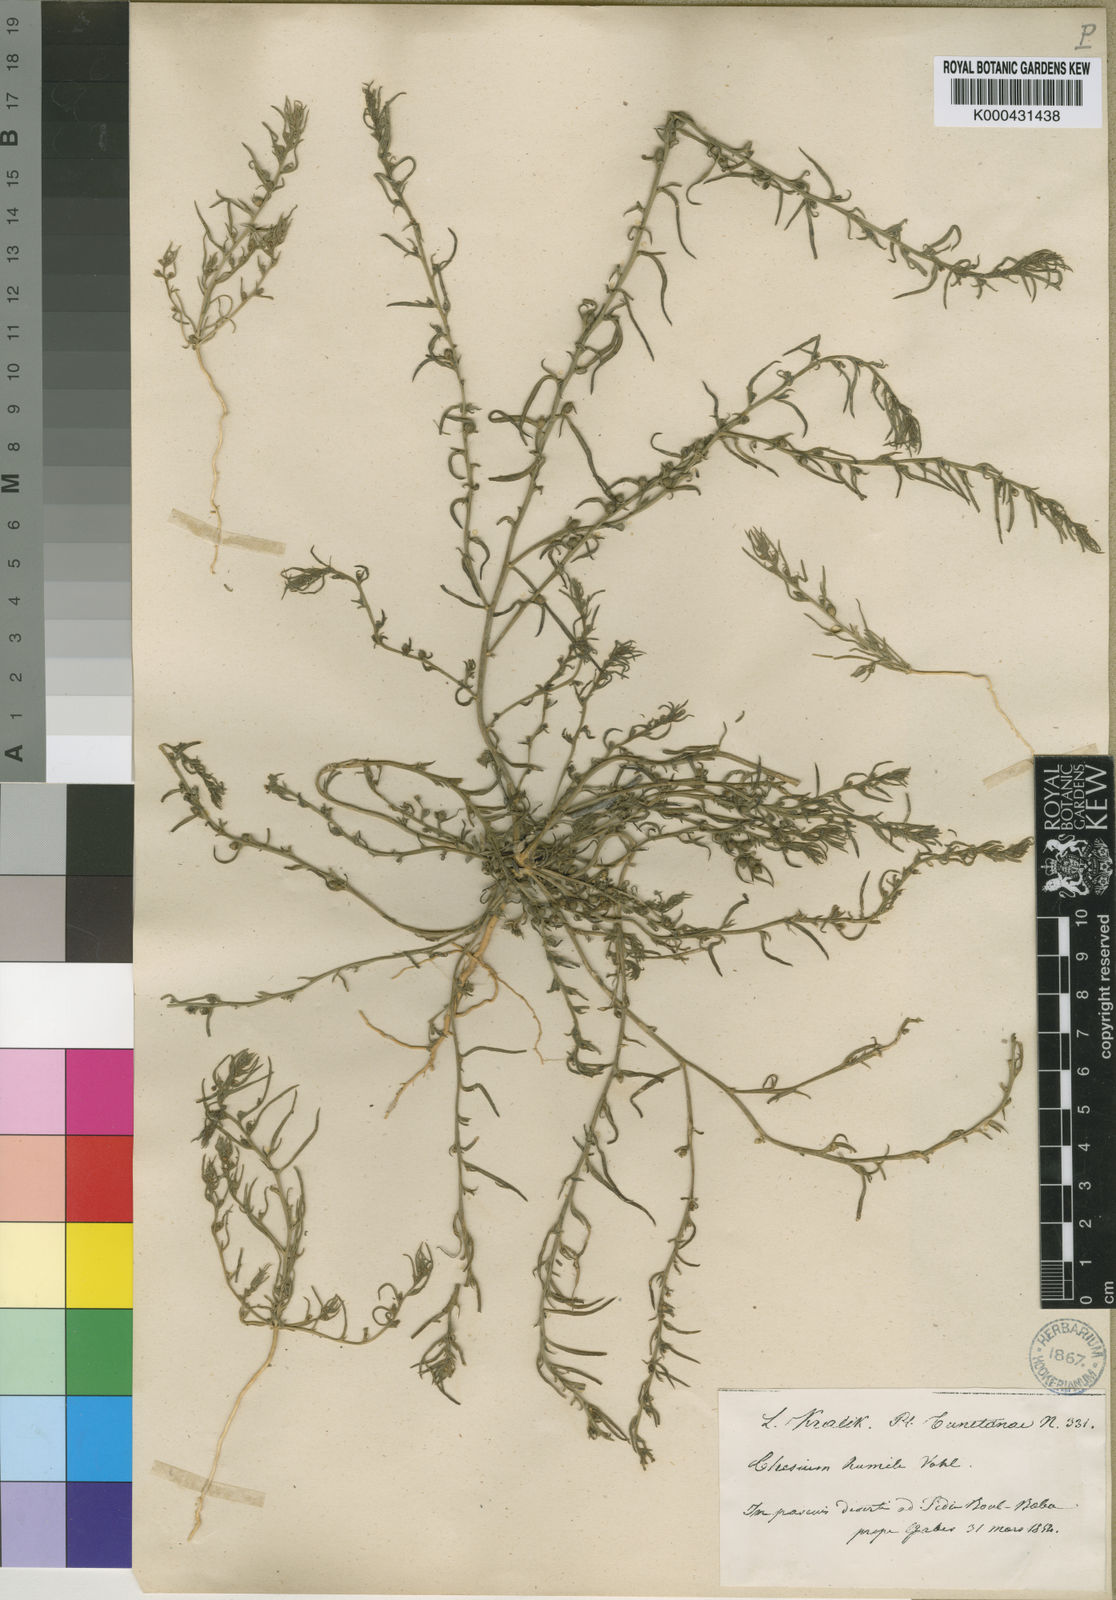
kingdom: Plantae
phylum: Tracheophyta
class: Magnoliopsida
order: Santalales
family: Thesiaceae
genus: Thesium
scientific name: Thesium humile
